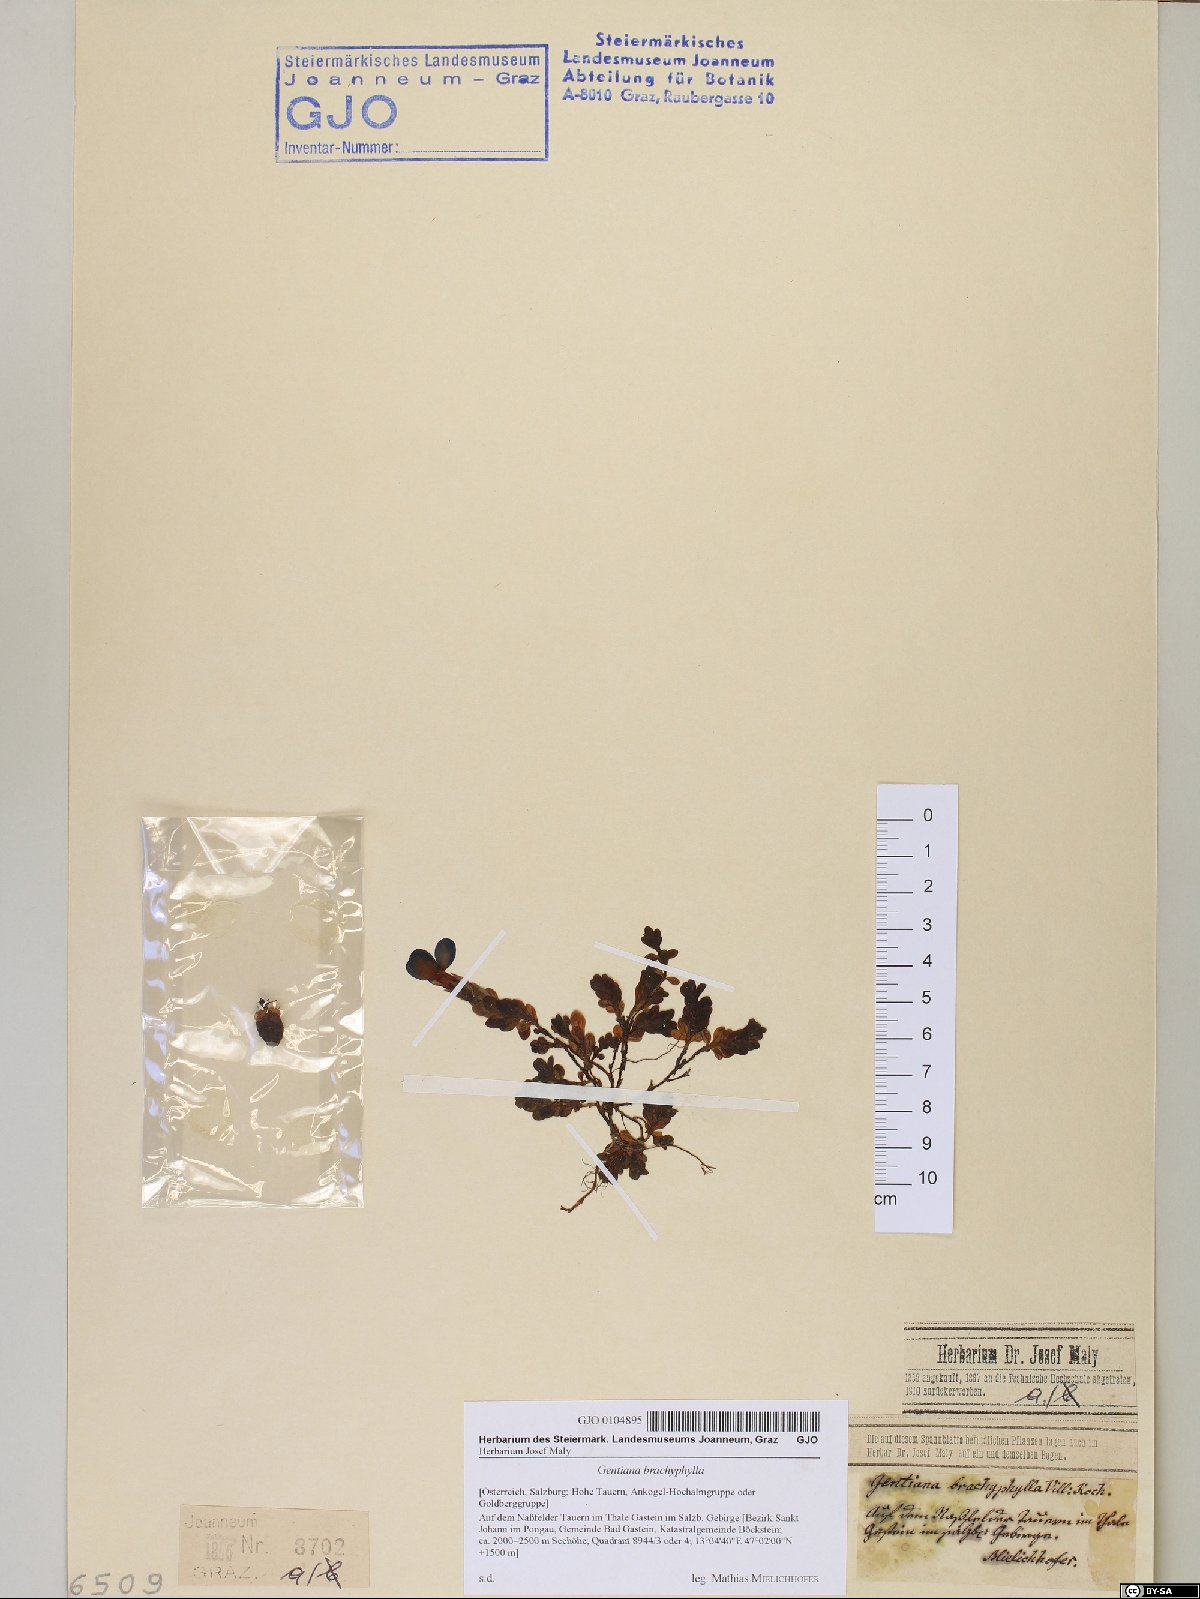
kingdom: Plantae
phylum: Tracheophyta
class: Magnoliopsida
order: Gentianales
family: Gentianaceae
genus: Gentiana
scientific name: Gentiana brachyphylla
